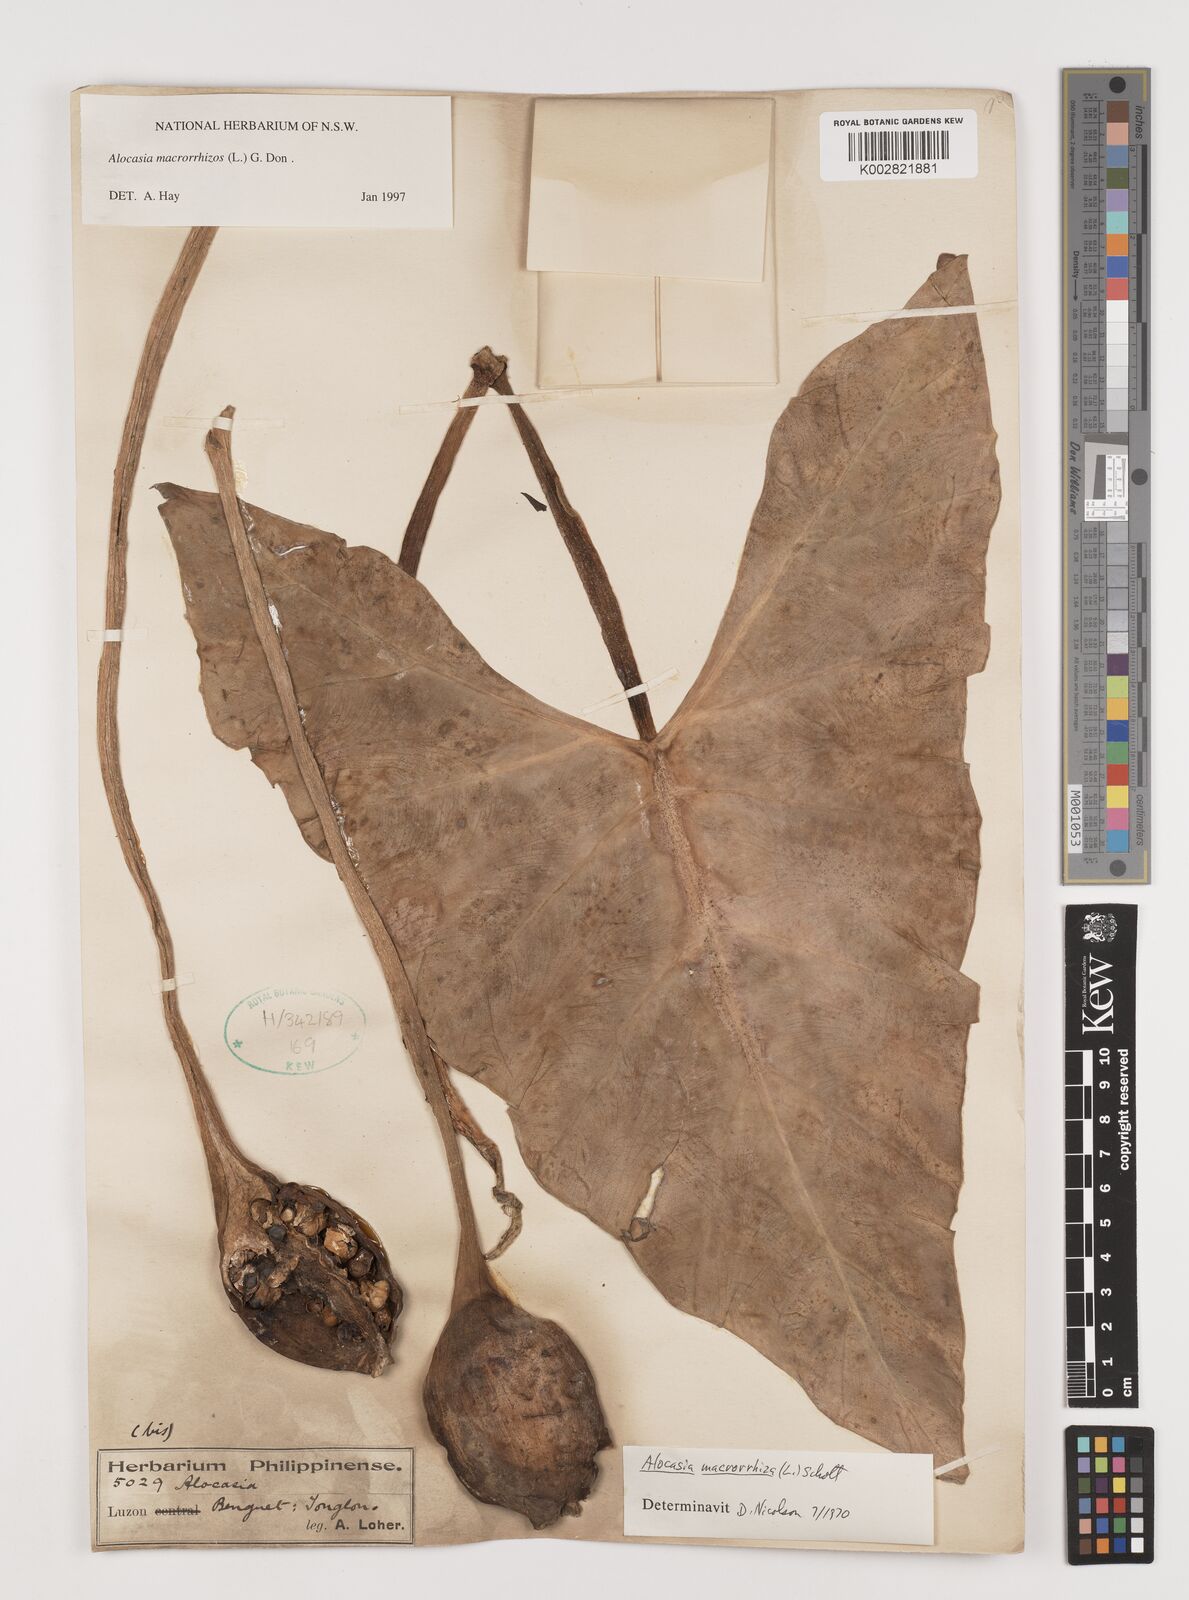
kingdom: Plantae
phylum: Tracheophyta
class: Liliopsida
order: Alismatales
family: Araceae
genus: Alocasia
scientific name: Alocasia macrorrhizos
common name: Giant taro
